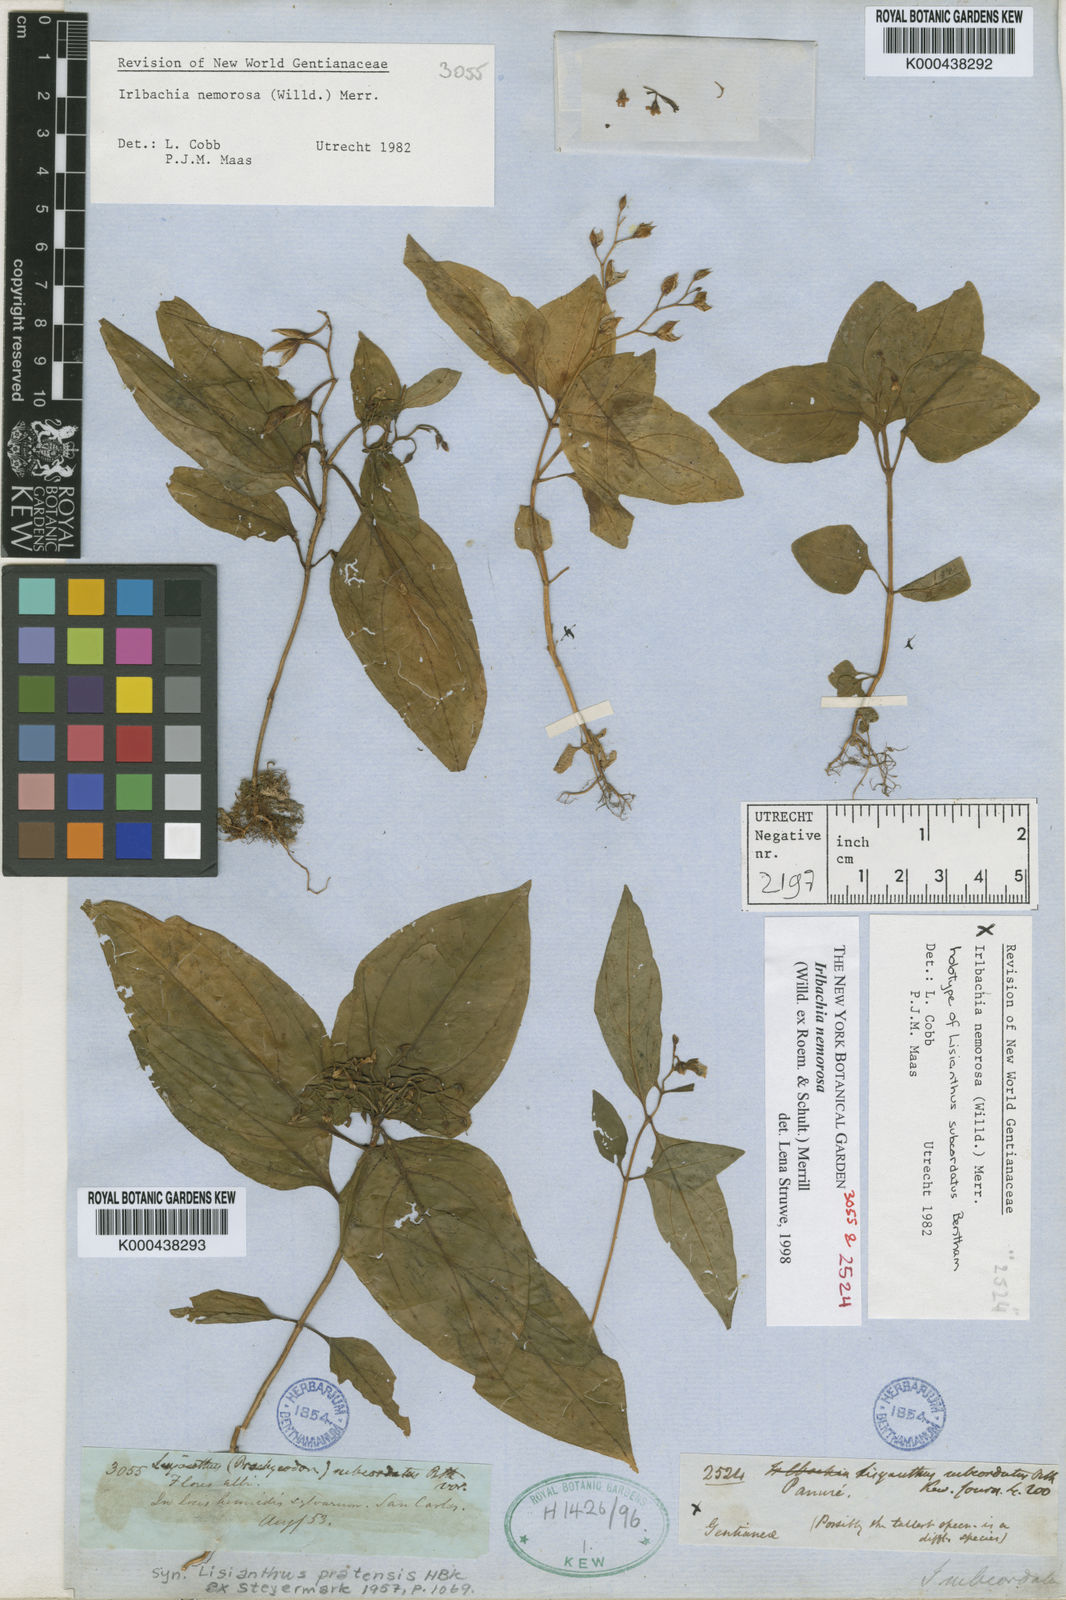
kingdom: Plantae
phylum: Tracheophyta
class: Magnoliopsida
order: Gentianales
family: Gentianaceae
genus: Lisianthius
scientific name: Lisianthius
